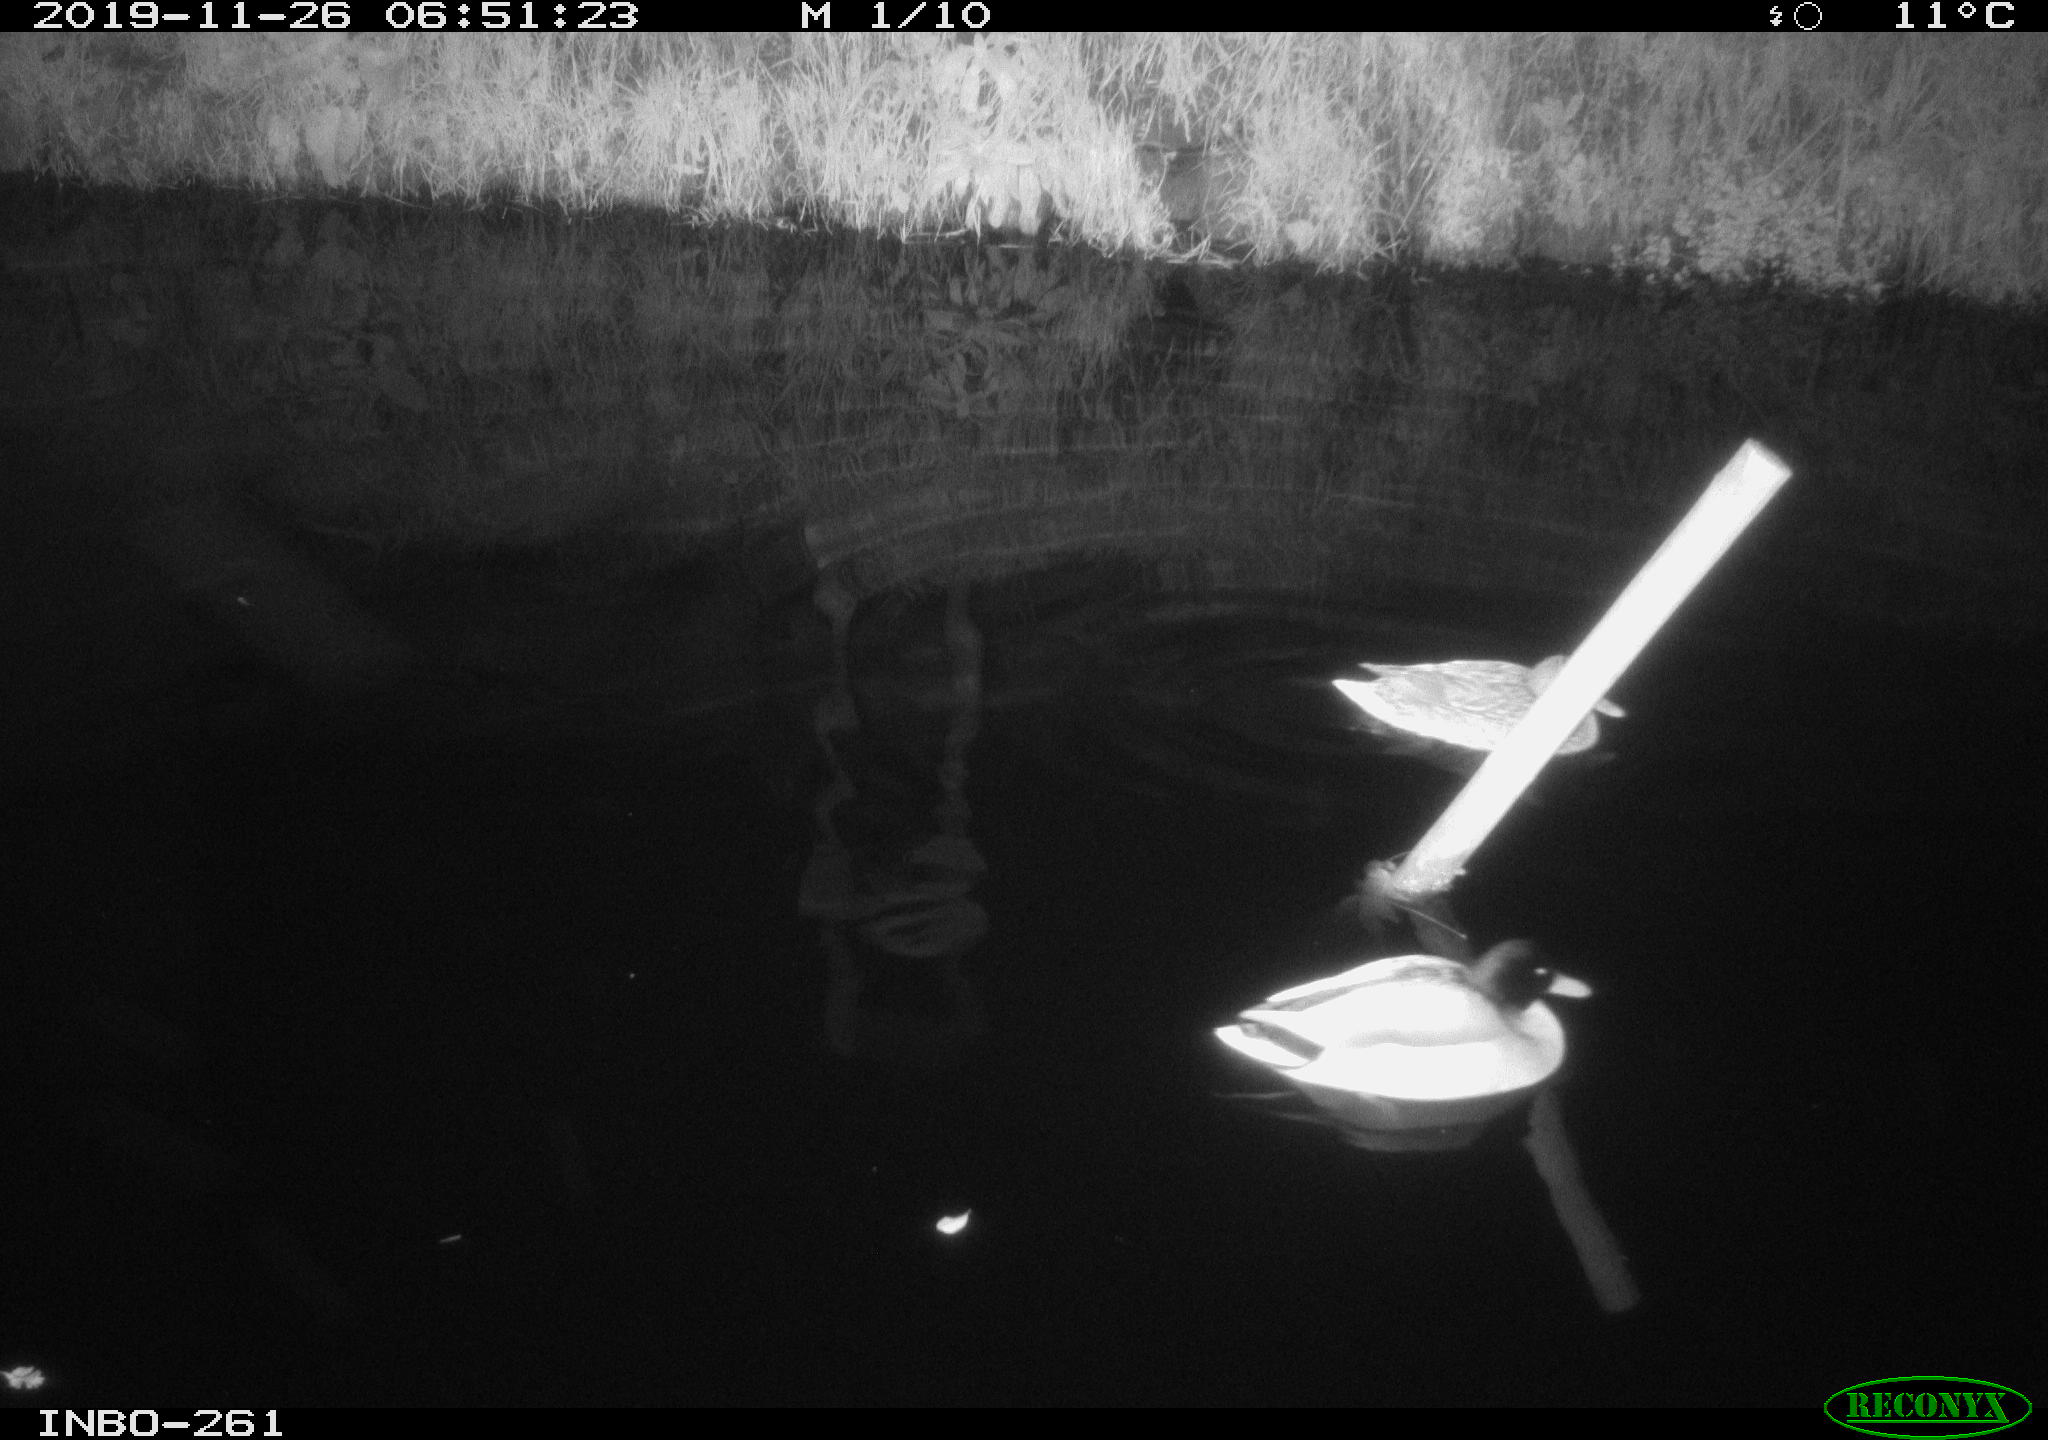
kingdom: Animalia
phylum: Chordata
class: Aves
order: Anseriformes
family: Anatidae
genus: Anas
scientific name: Anas platyrhynchos
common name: Mallard
